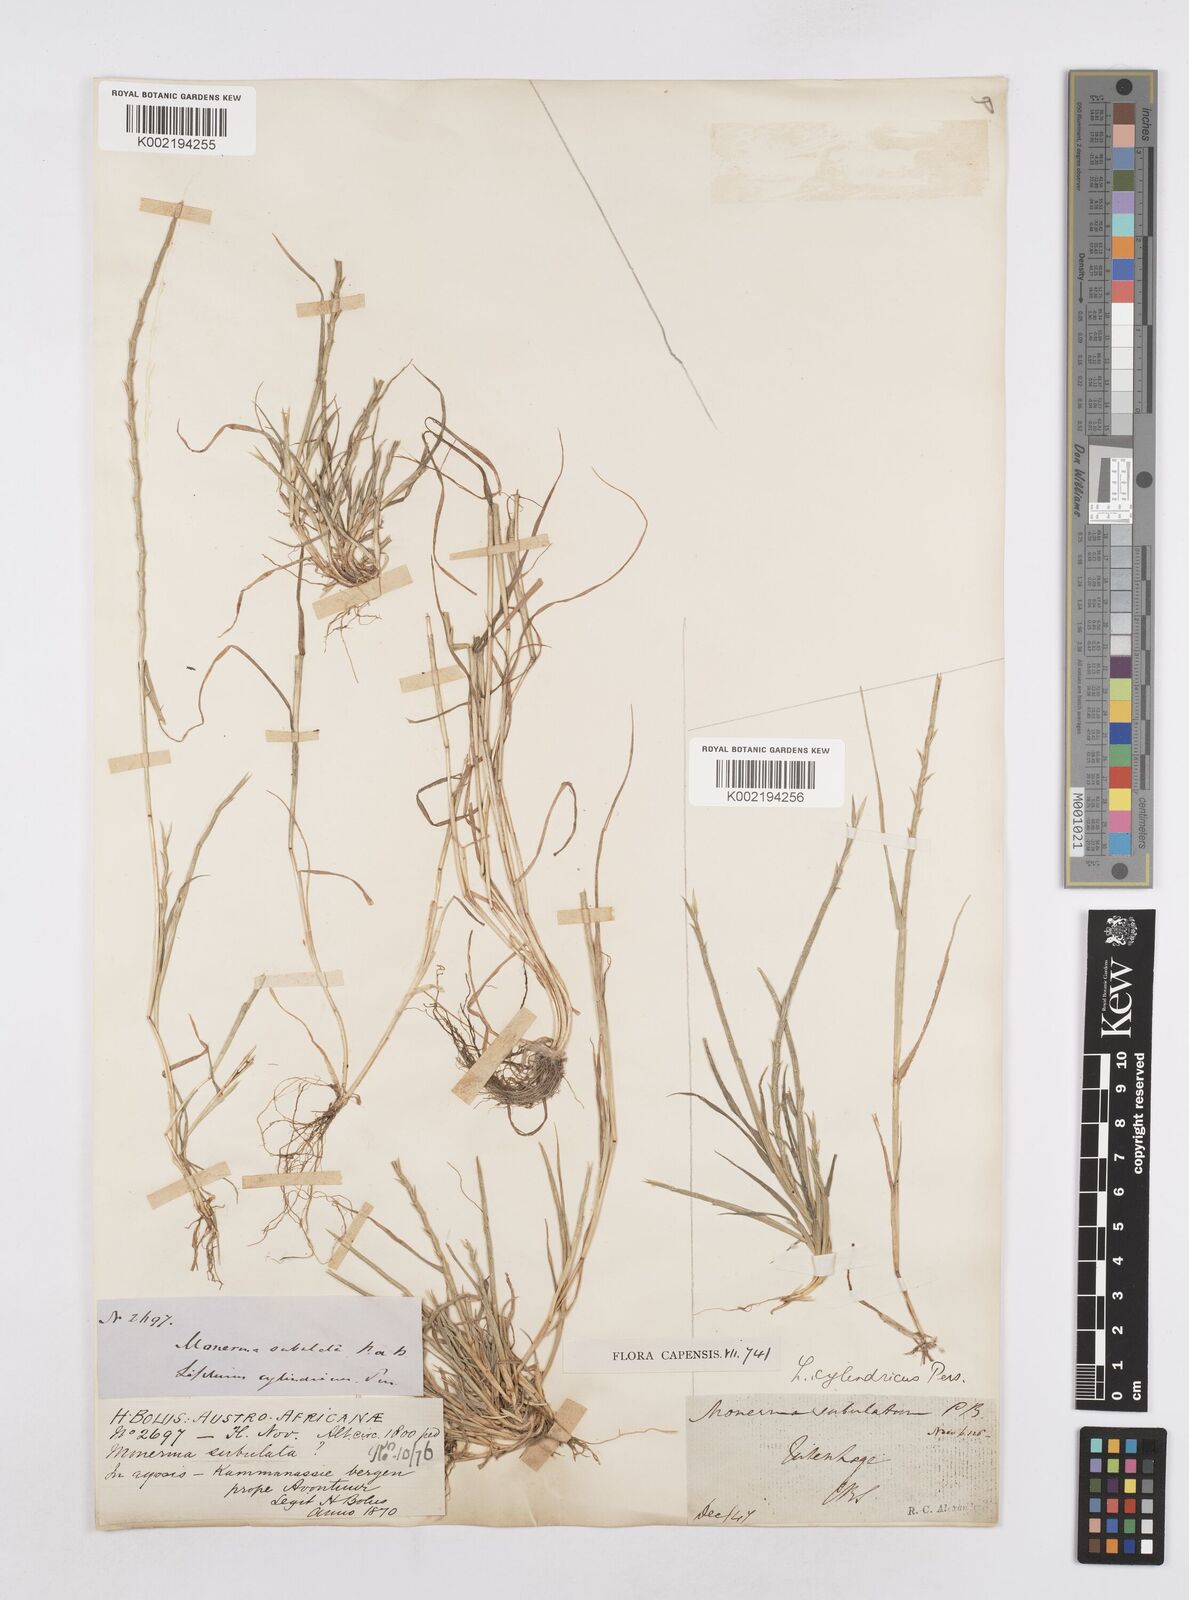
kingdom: Plantae
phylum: Tracheophyta
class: Liliopsida
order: Poales
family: Poaceae
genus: Parapholis
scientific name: Parapholis cylindrica
